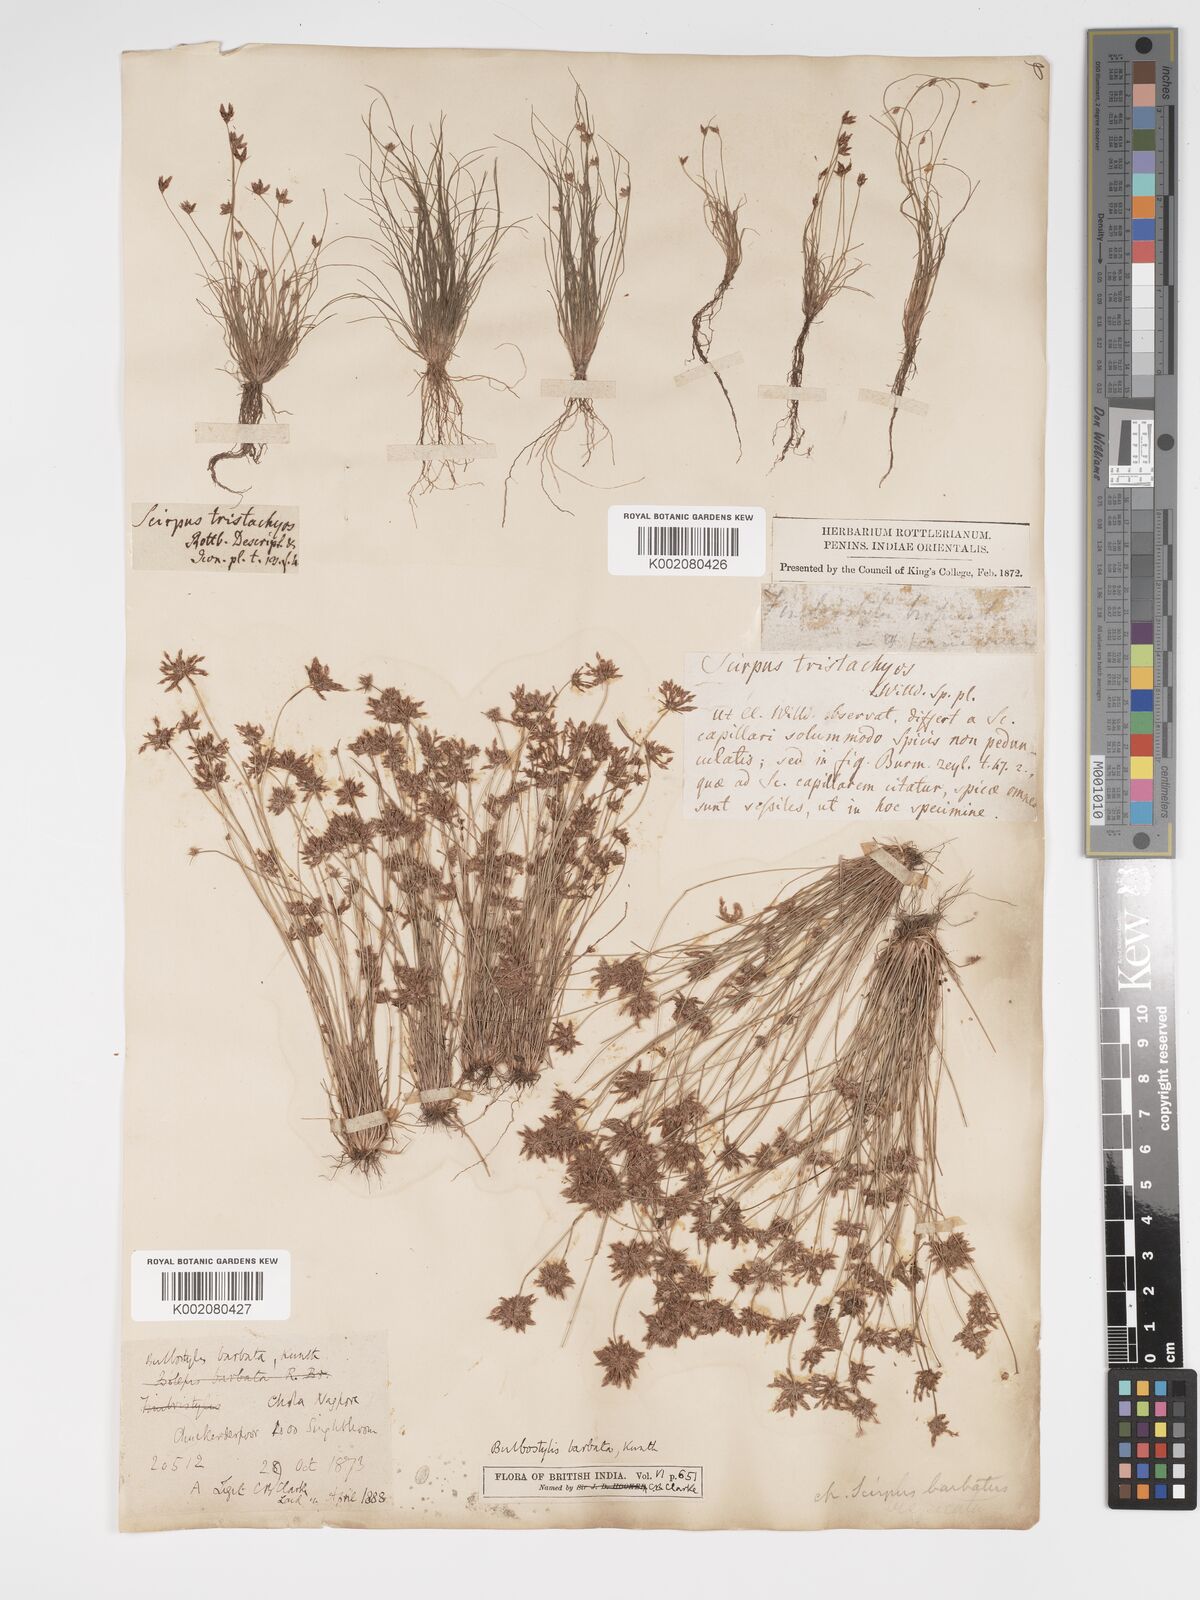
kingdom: Plantae
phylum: Tracheophyta
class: Liliopsida
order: Poales
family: Cyperaceae
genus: Bulbostylis
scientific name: Bulbostylis barbata
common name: Watergrass
